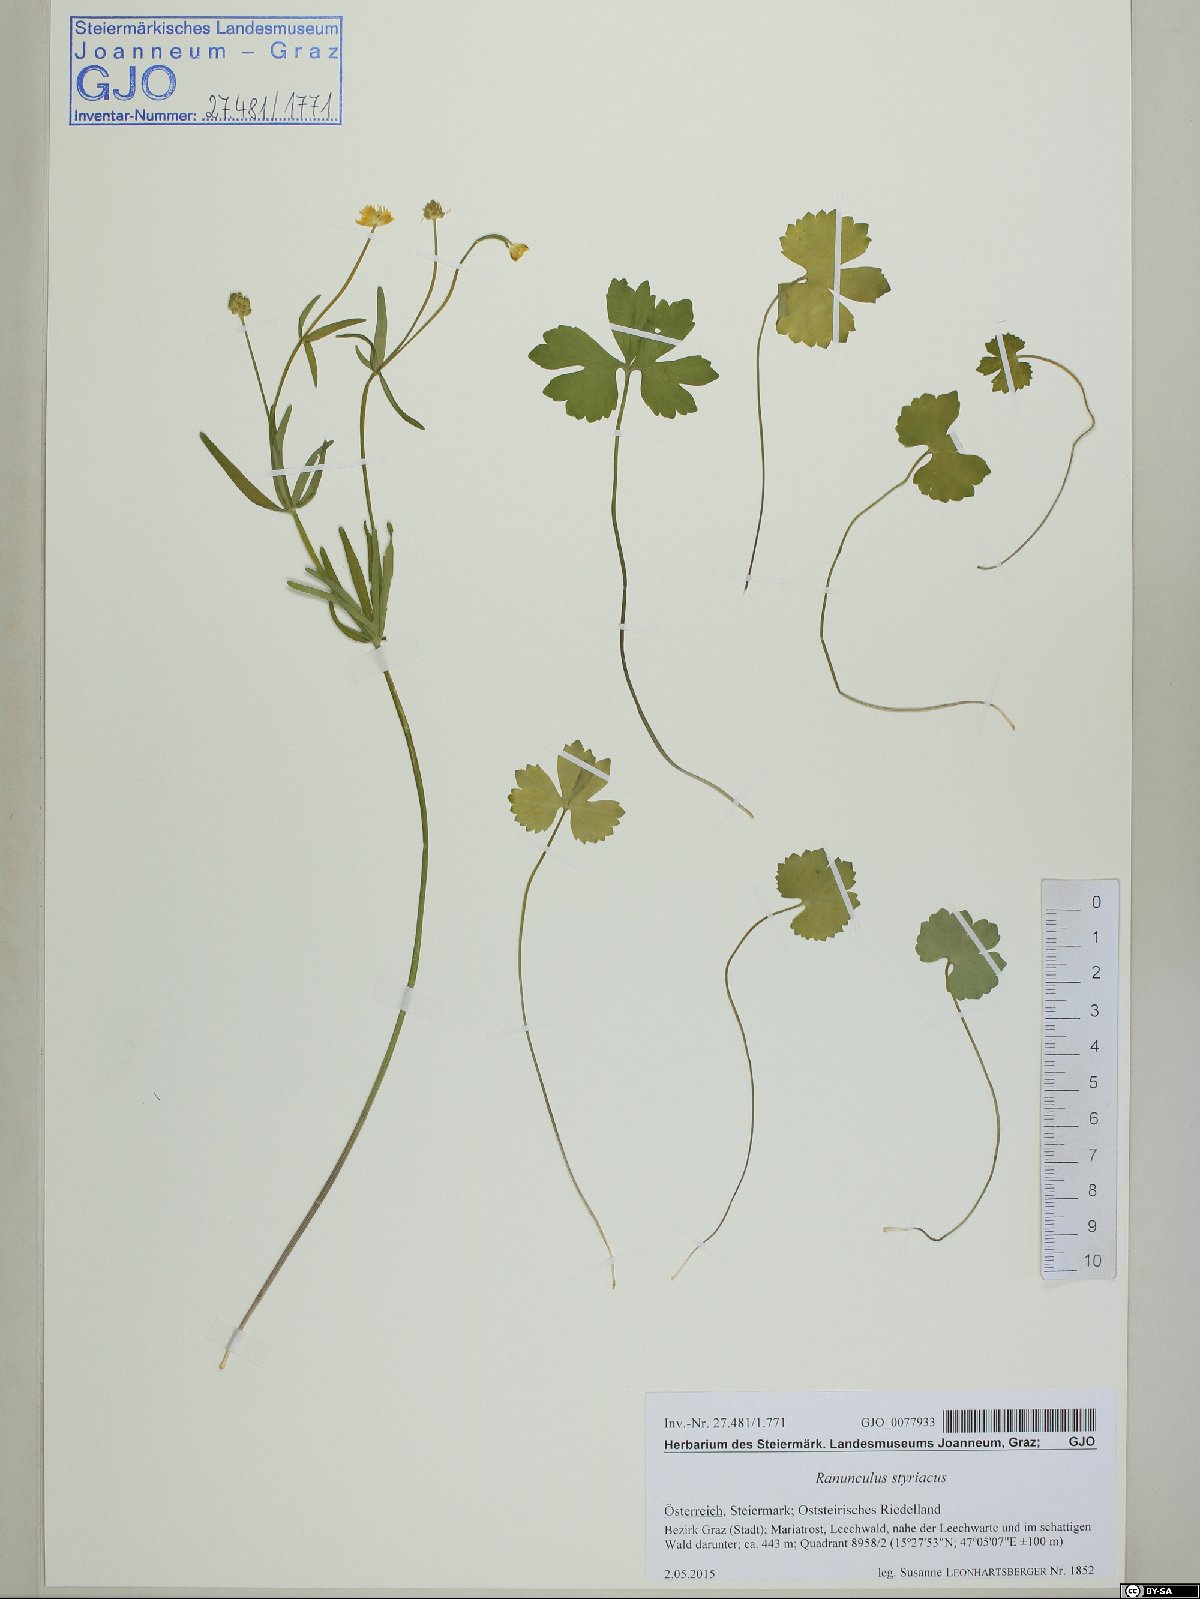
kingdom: Plantae
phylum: Tracheophyta
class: Magnoliopsida
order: Ranunculales
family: Ranunculaceae
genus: Ranunculus
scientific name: Ranunculus styriacus
